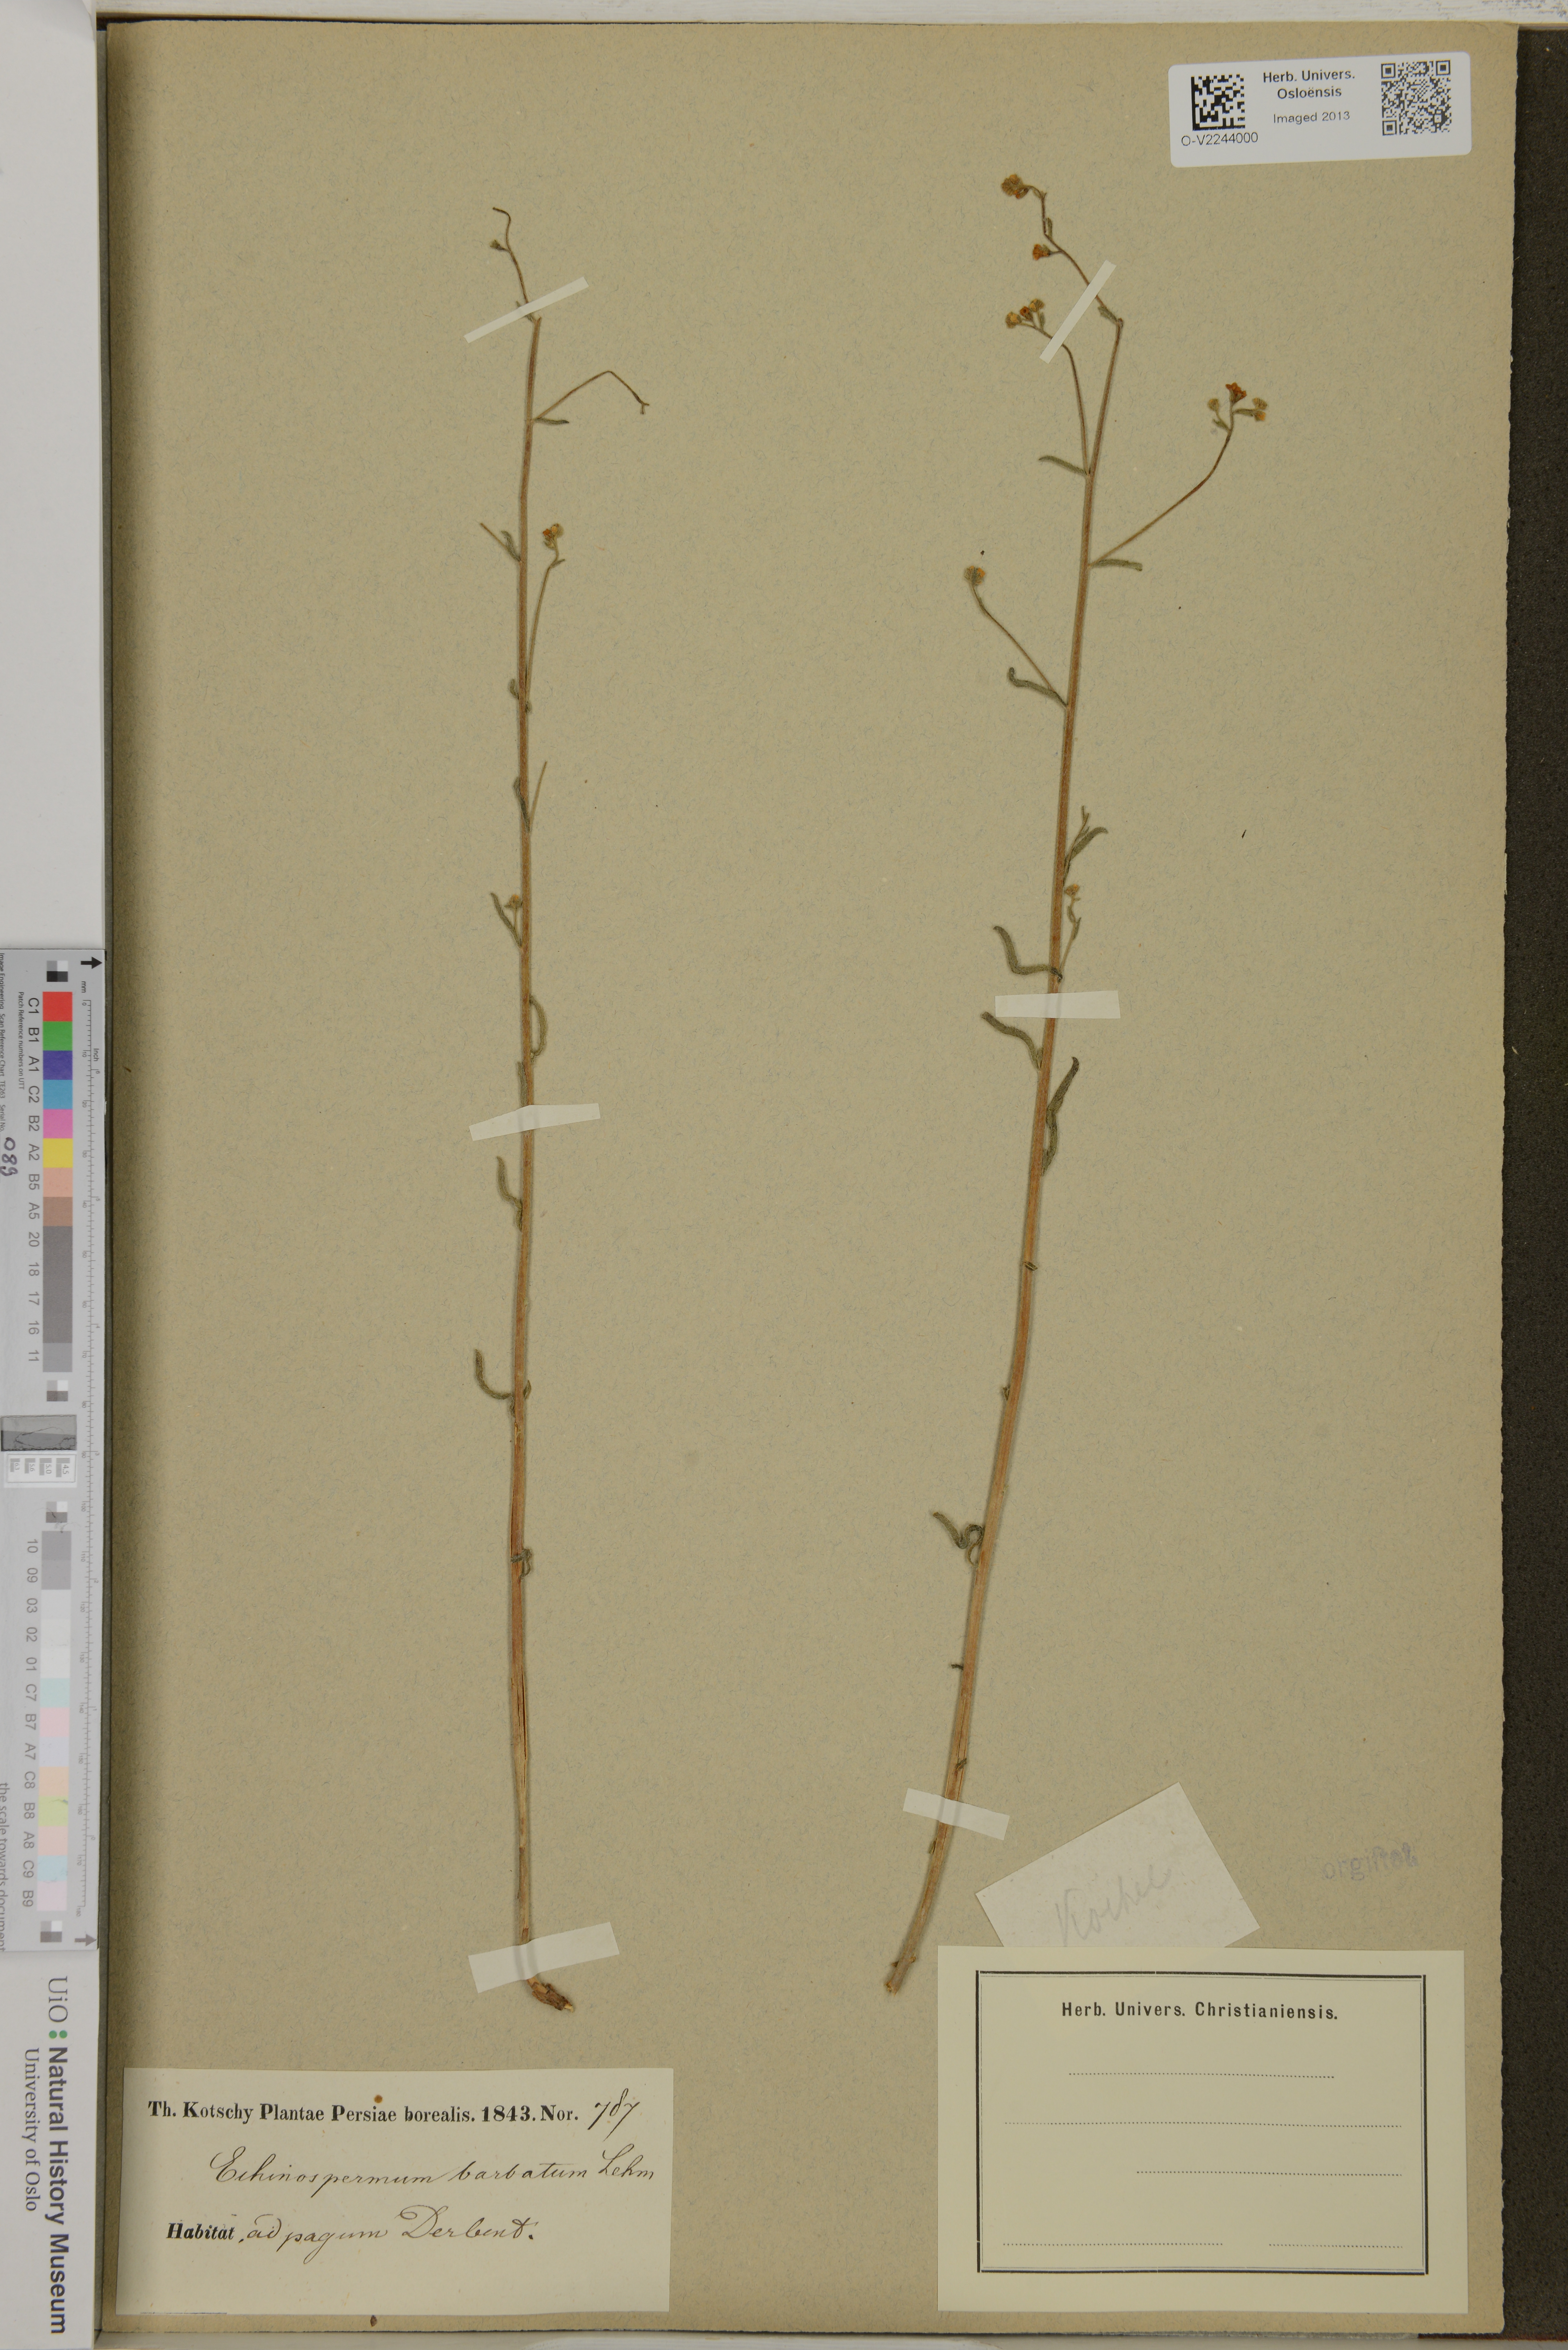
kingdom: Plantae
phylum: Tracheophyta
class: Magnoliopsida
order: Boraginales
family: Boraginaceae
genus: Lappula
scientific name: Lappula barbata
